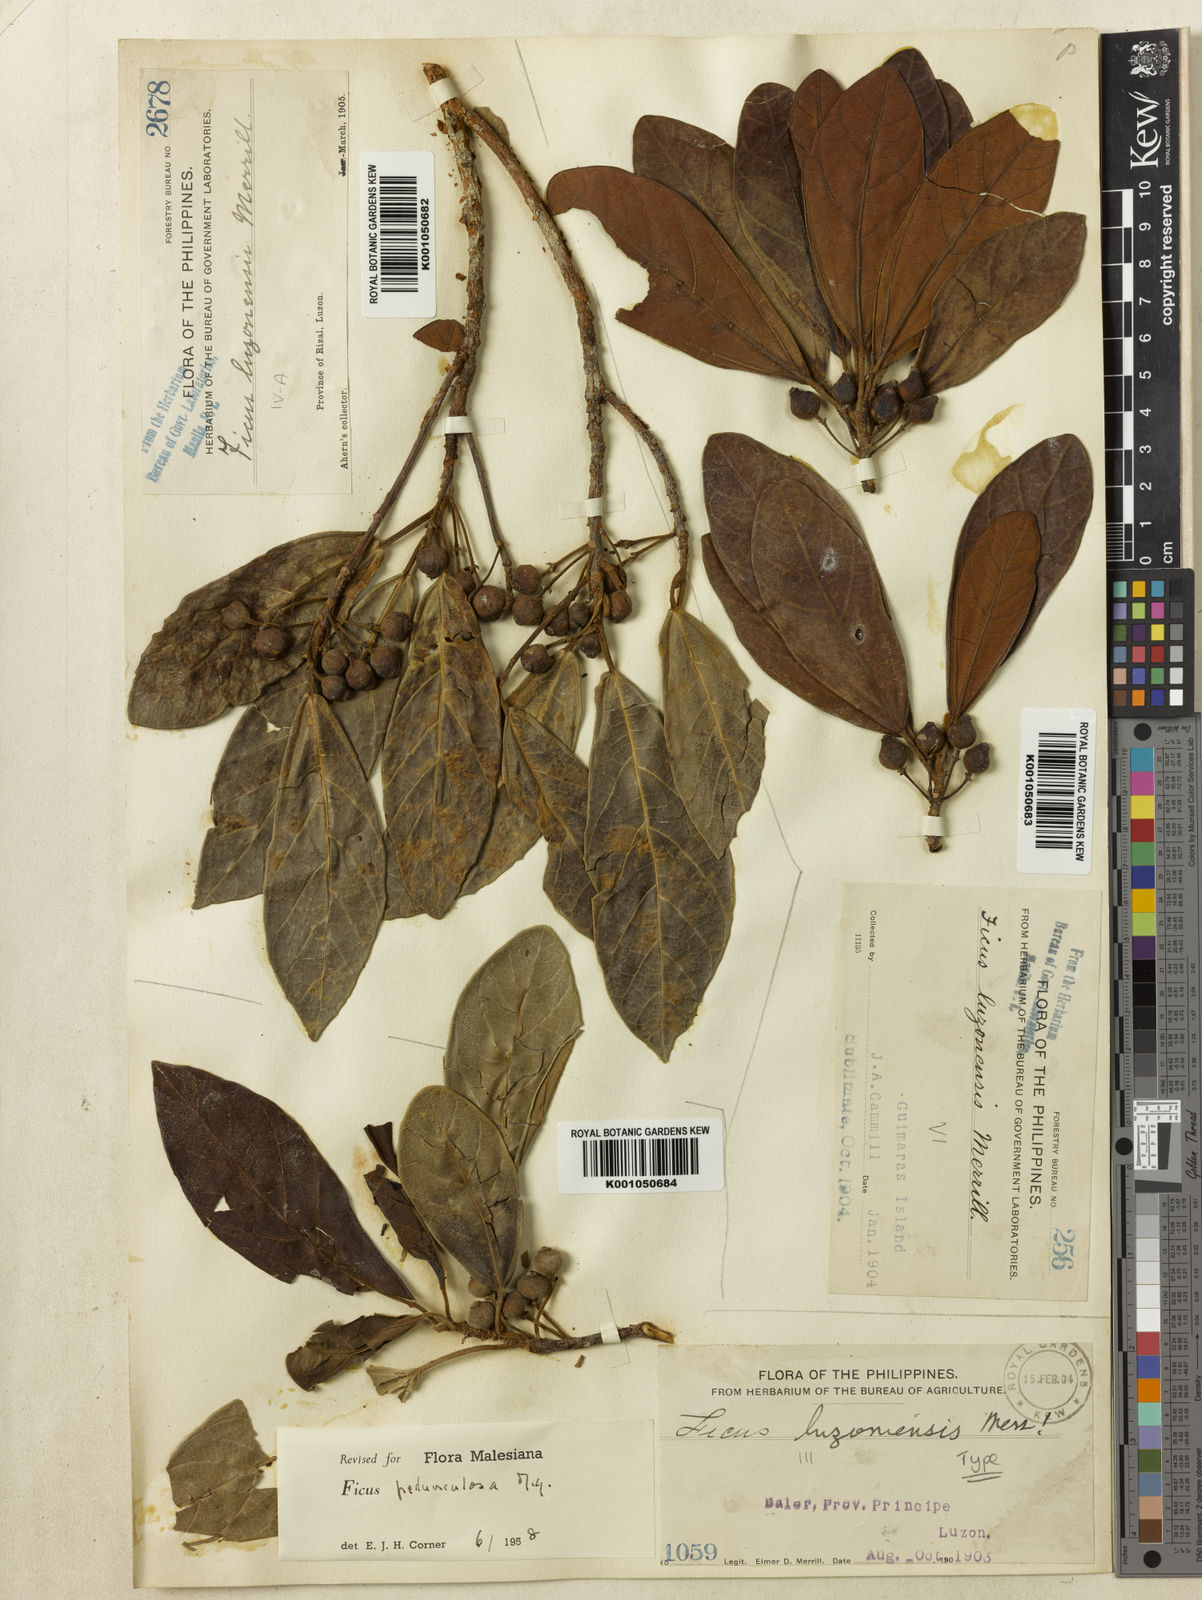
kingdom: Plantae
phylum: Tracheophyta
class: Magnoliopsida
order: Rosales
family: Moraceae
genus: Ficus
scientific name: Ficus pedunculosa
